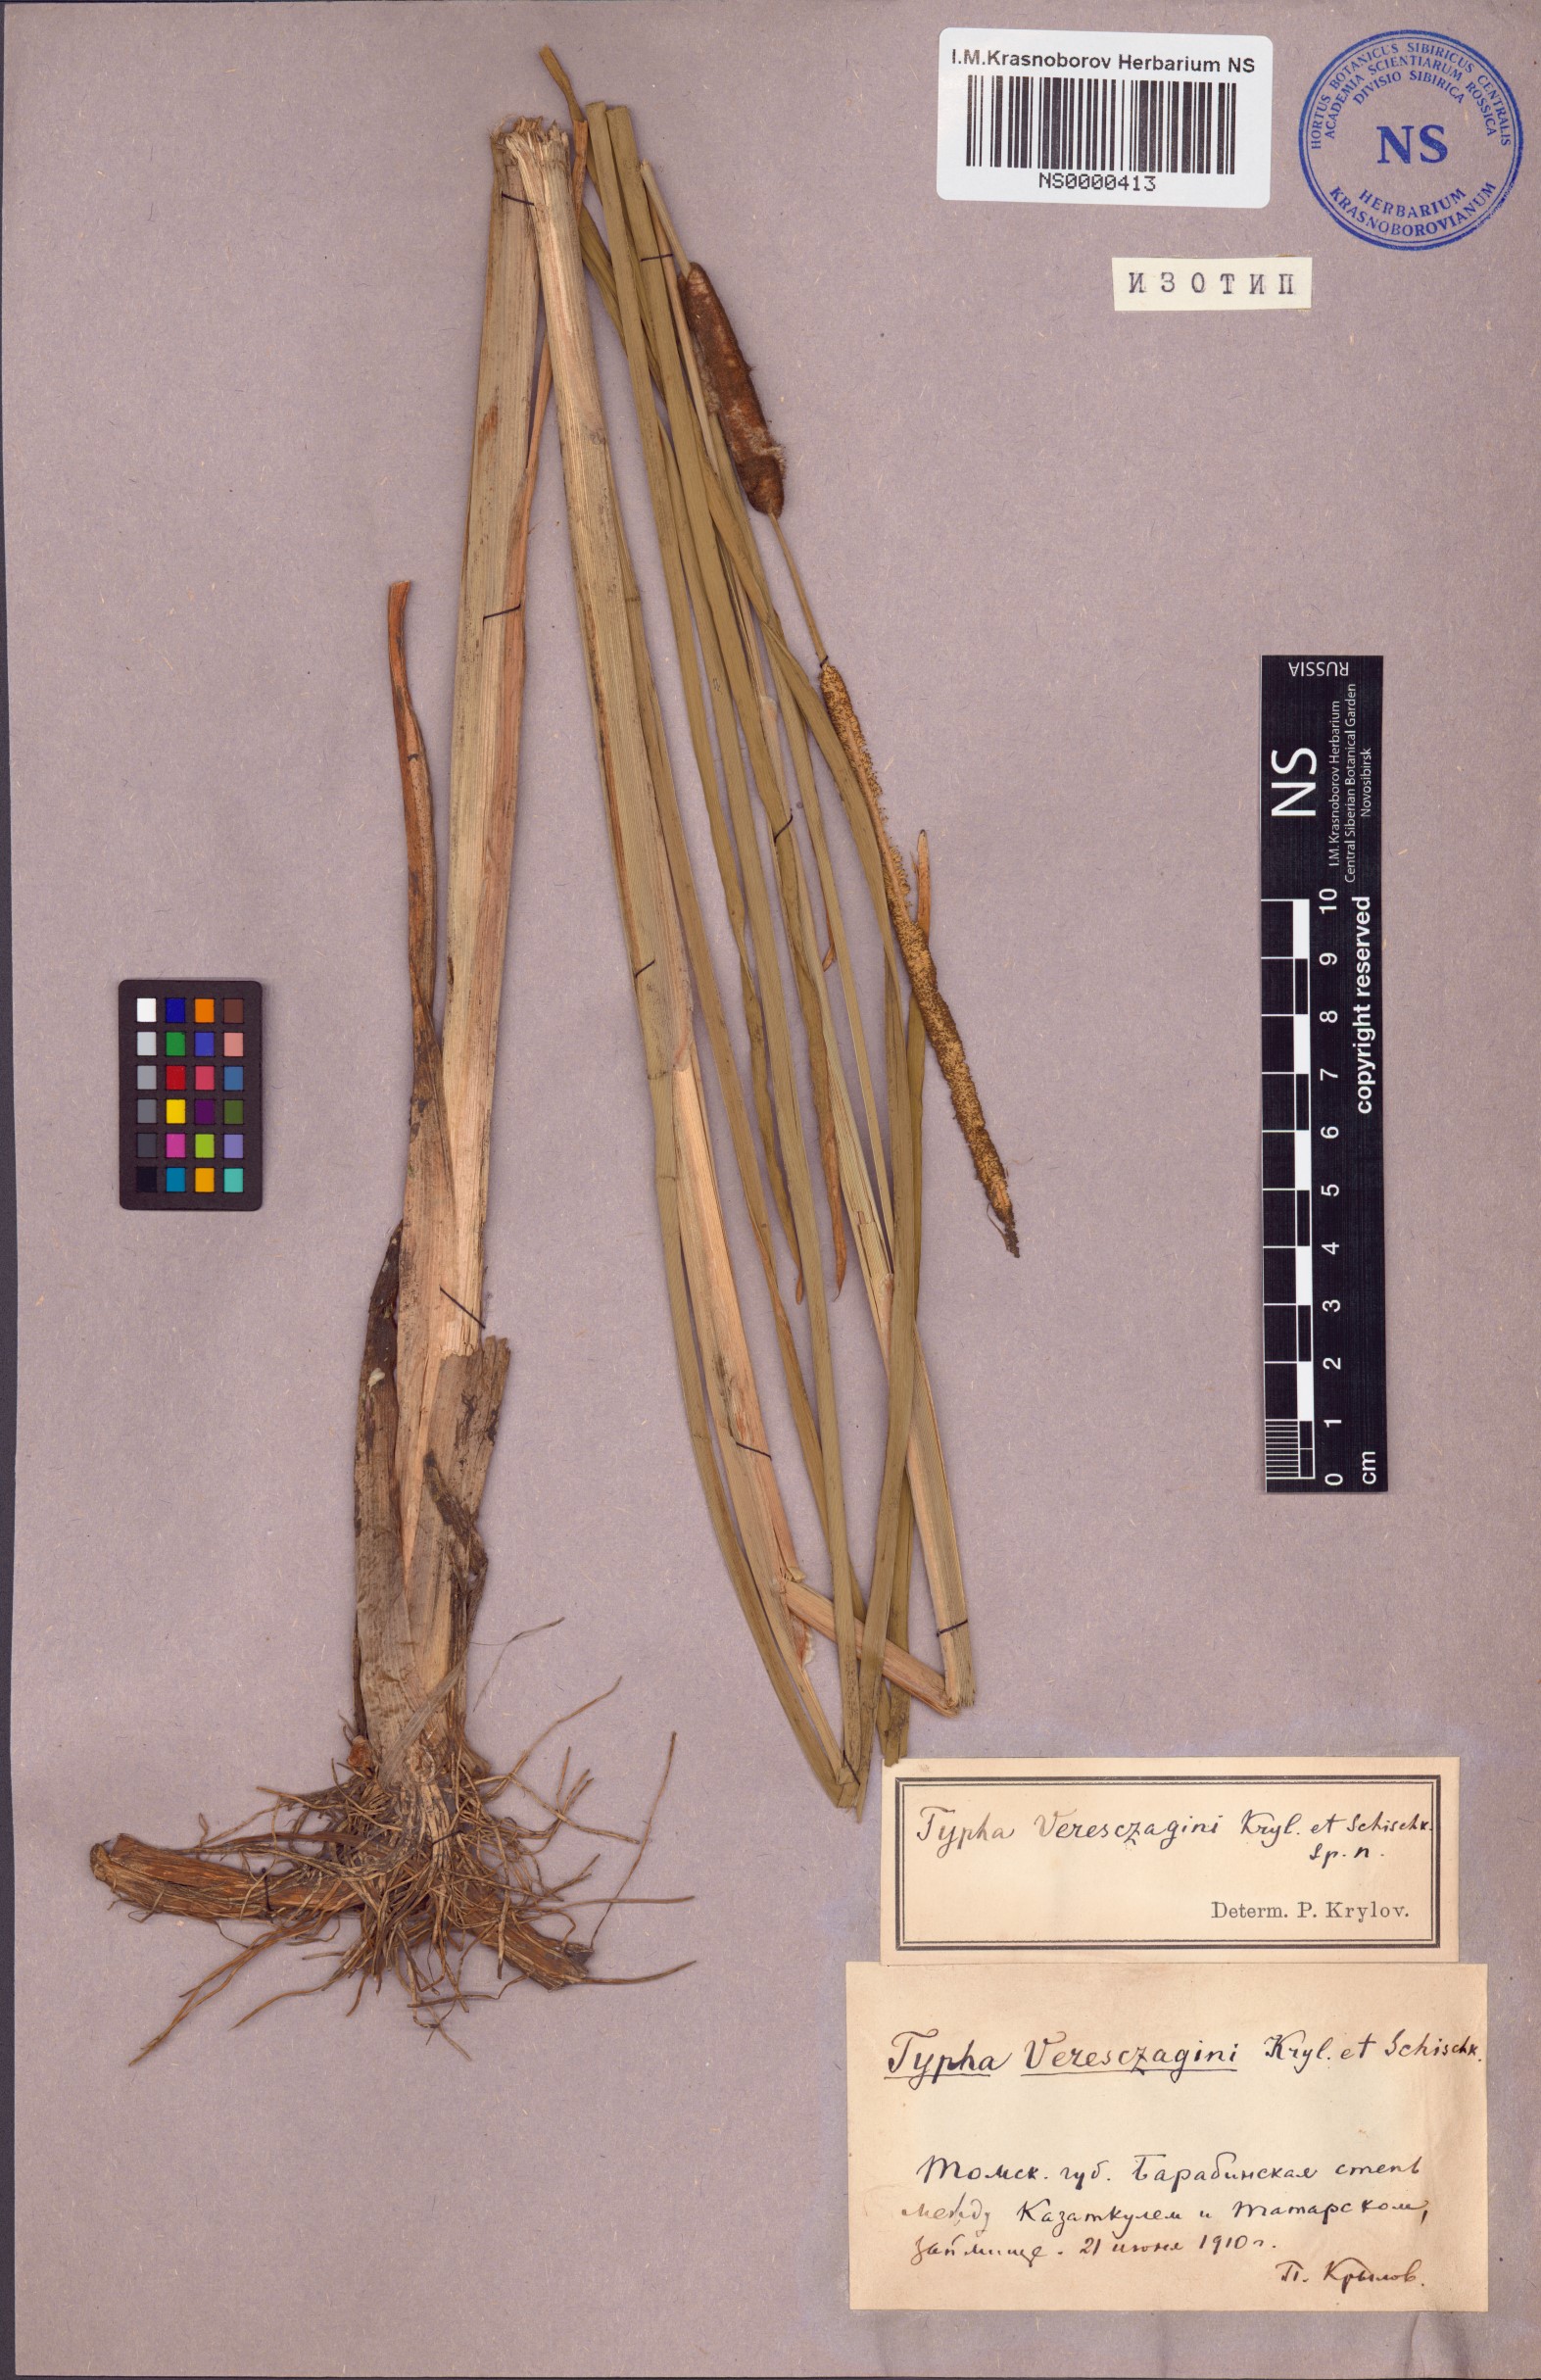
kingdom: Plantae
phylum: Tracheophyta
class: Liliopsida
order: Poales
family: Typhaceae
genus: Typha
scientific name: Typha laxmannii
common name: Laxman’s bulrush
